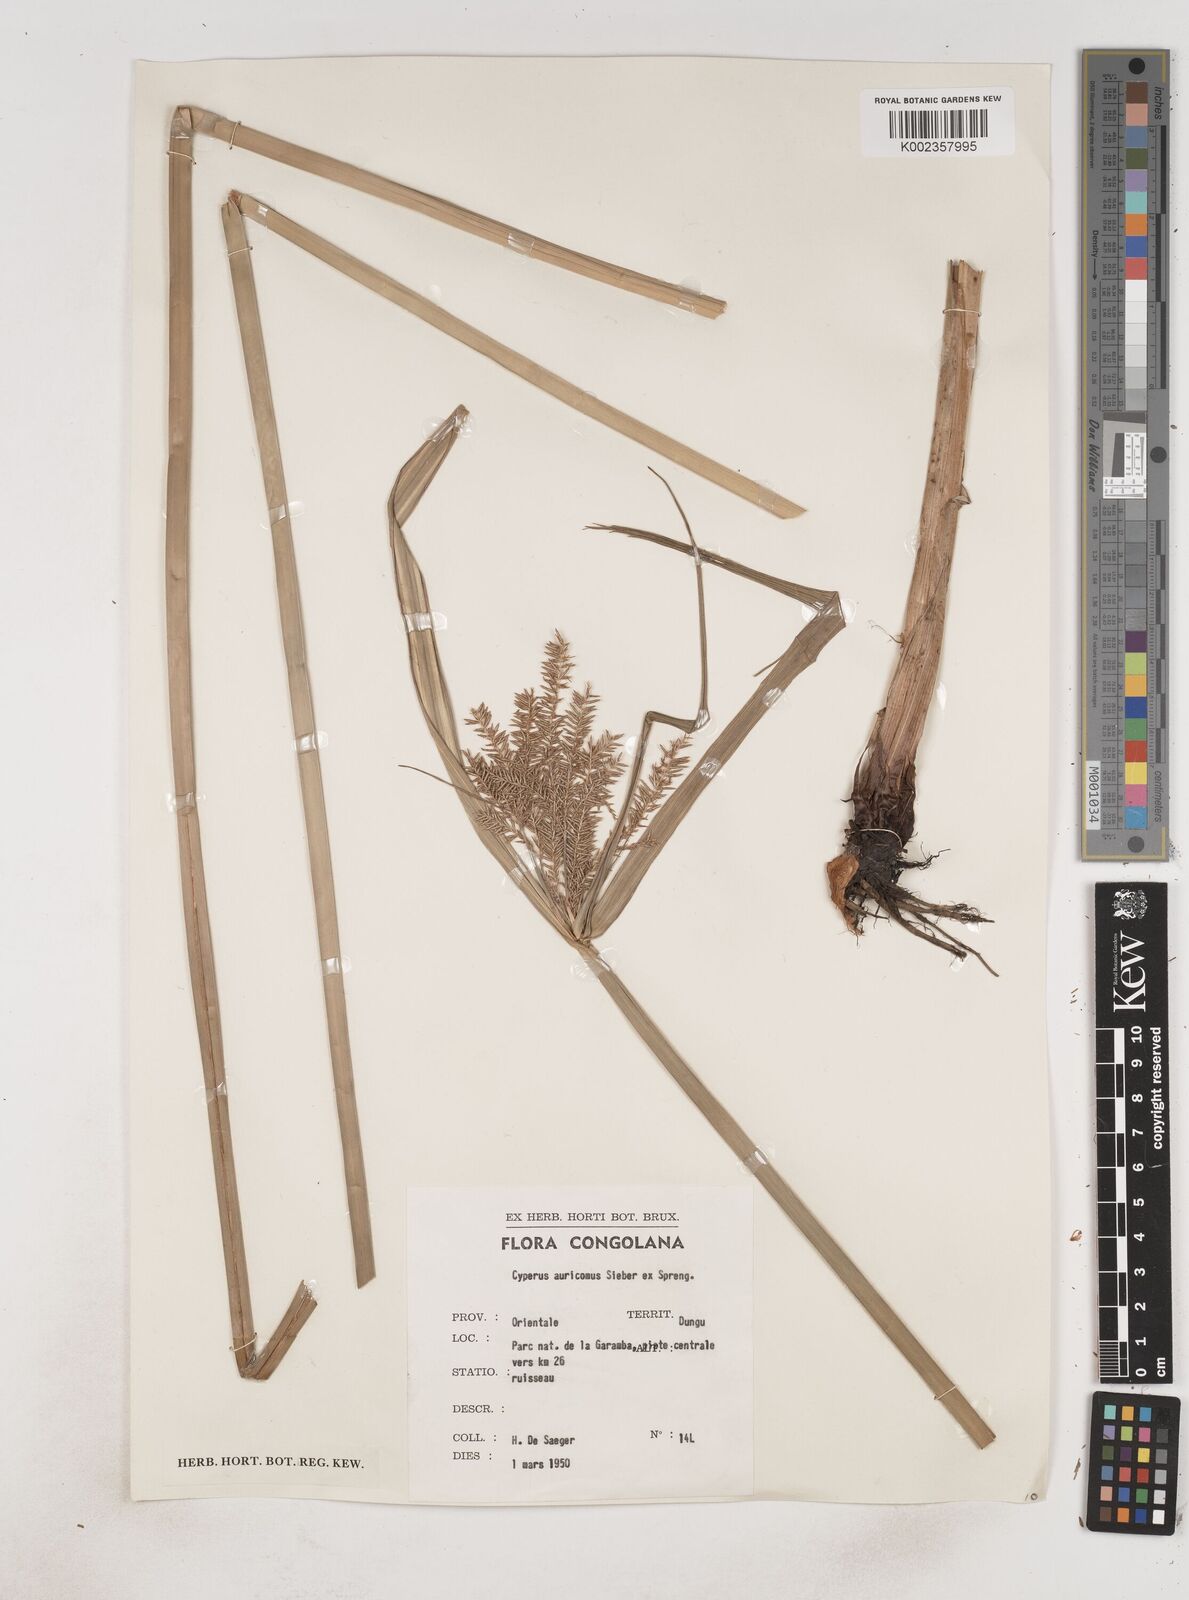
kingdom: Plantae
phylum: Tracheophyta
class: Liliopsida
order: Poales
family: Cyperaceae
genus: Cyperus
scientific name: Cyperus digitatus
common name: Finger flatsedge
